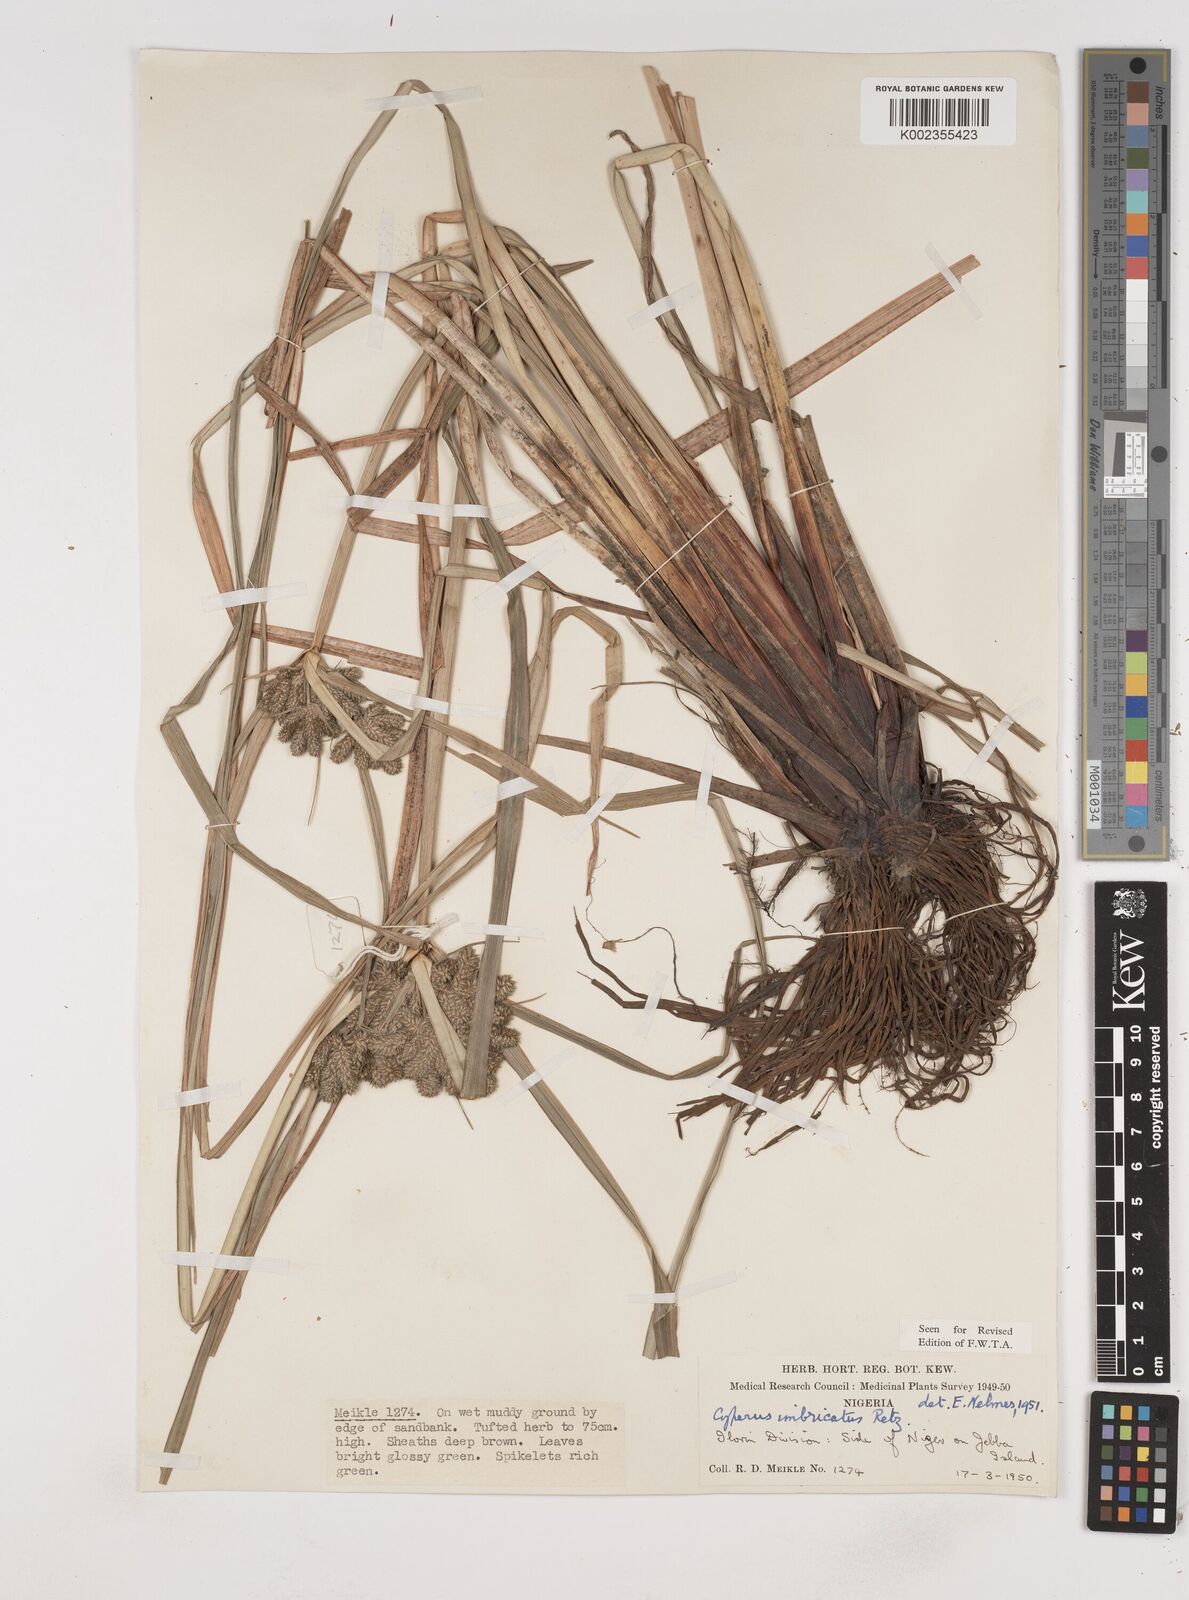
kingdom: Plantae
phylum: Tracheophyta
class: Liliopsida
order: Poales
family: Cyperaceae
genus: Cyperus
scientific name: Cyperus imbricatus
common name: Shingle flatsedge
